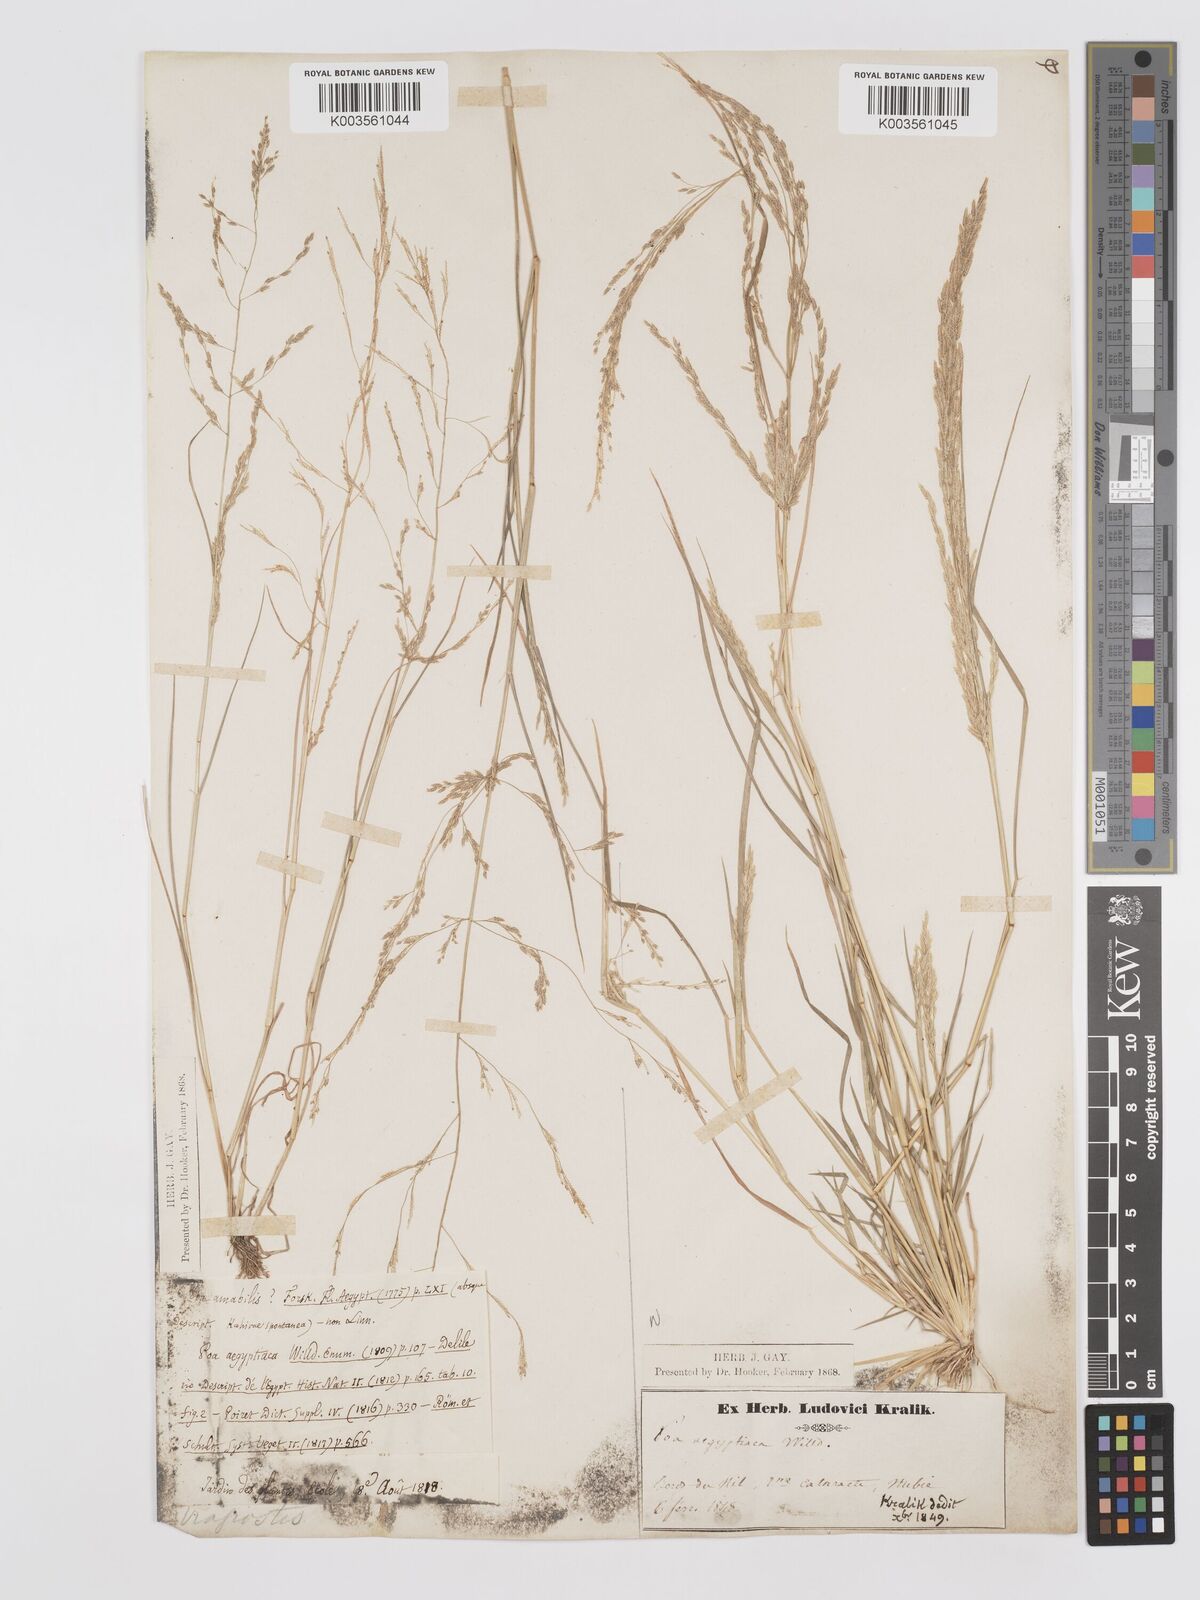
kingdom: Plantae
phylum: Tracheophyta
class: Liliopsida
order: Poales
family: Poaceae
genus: Eragrostis
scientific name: Eragrostis aegyptiaca
